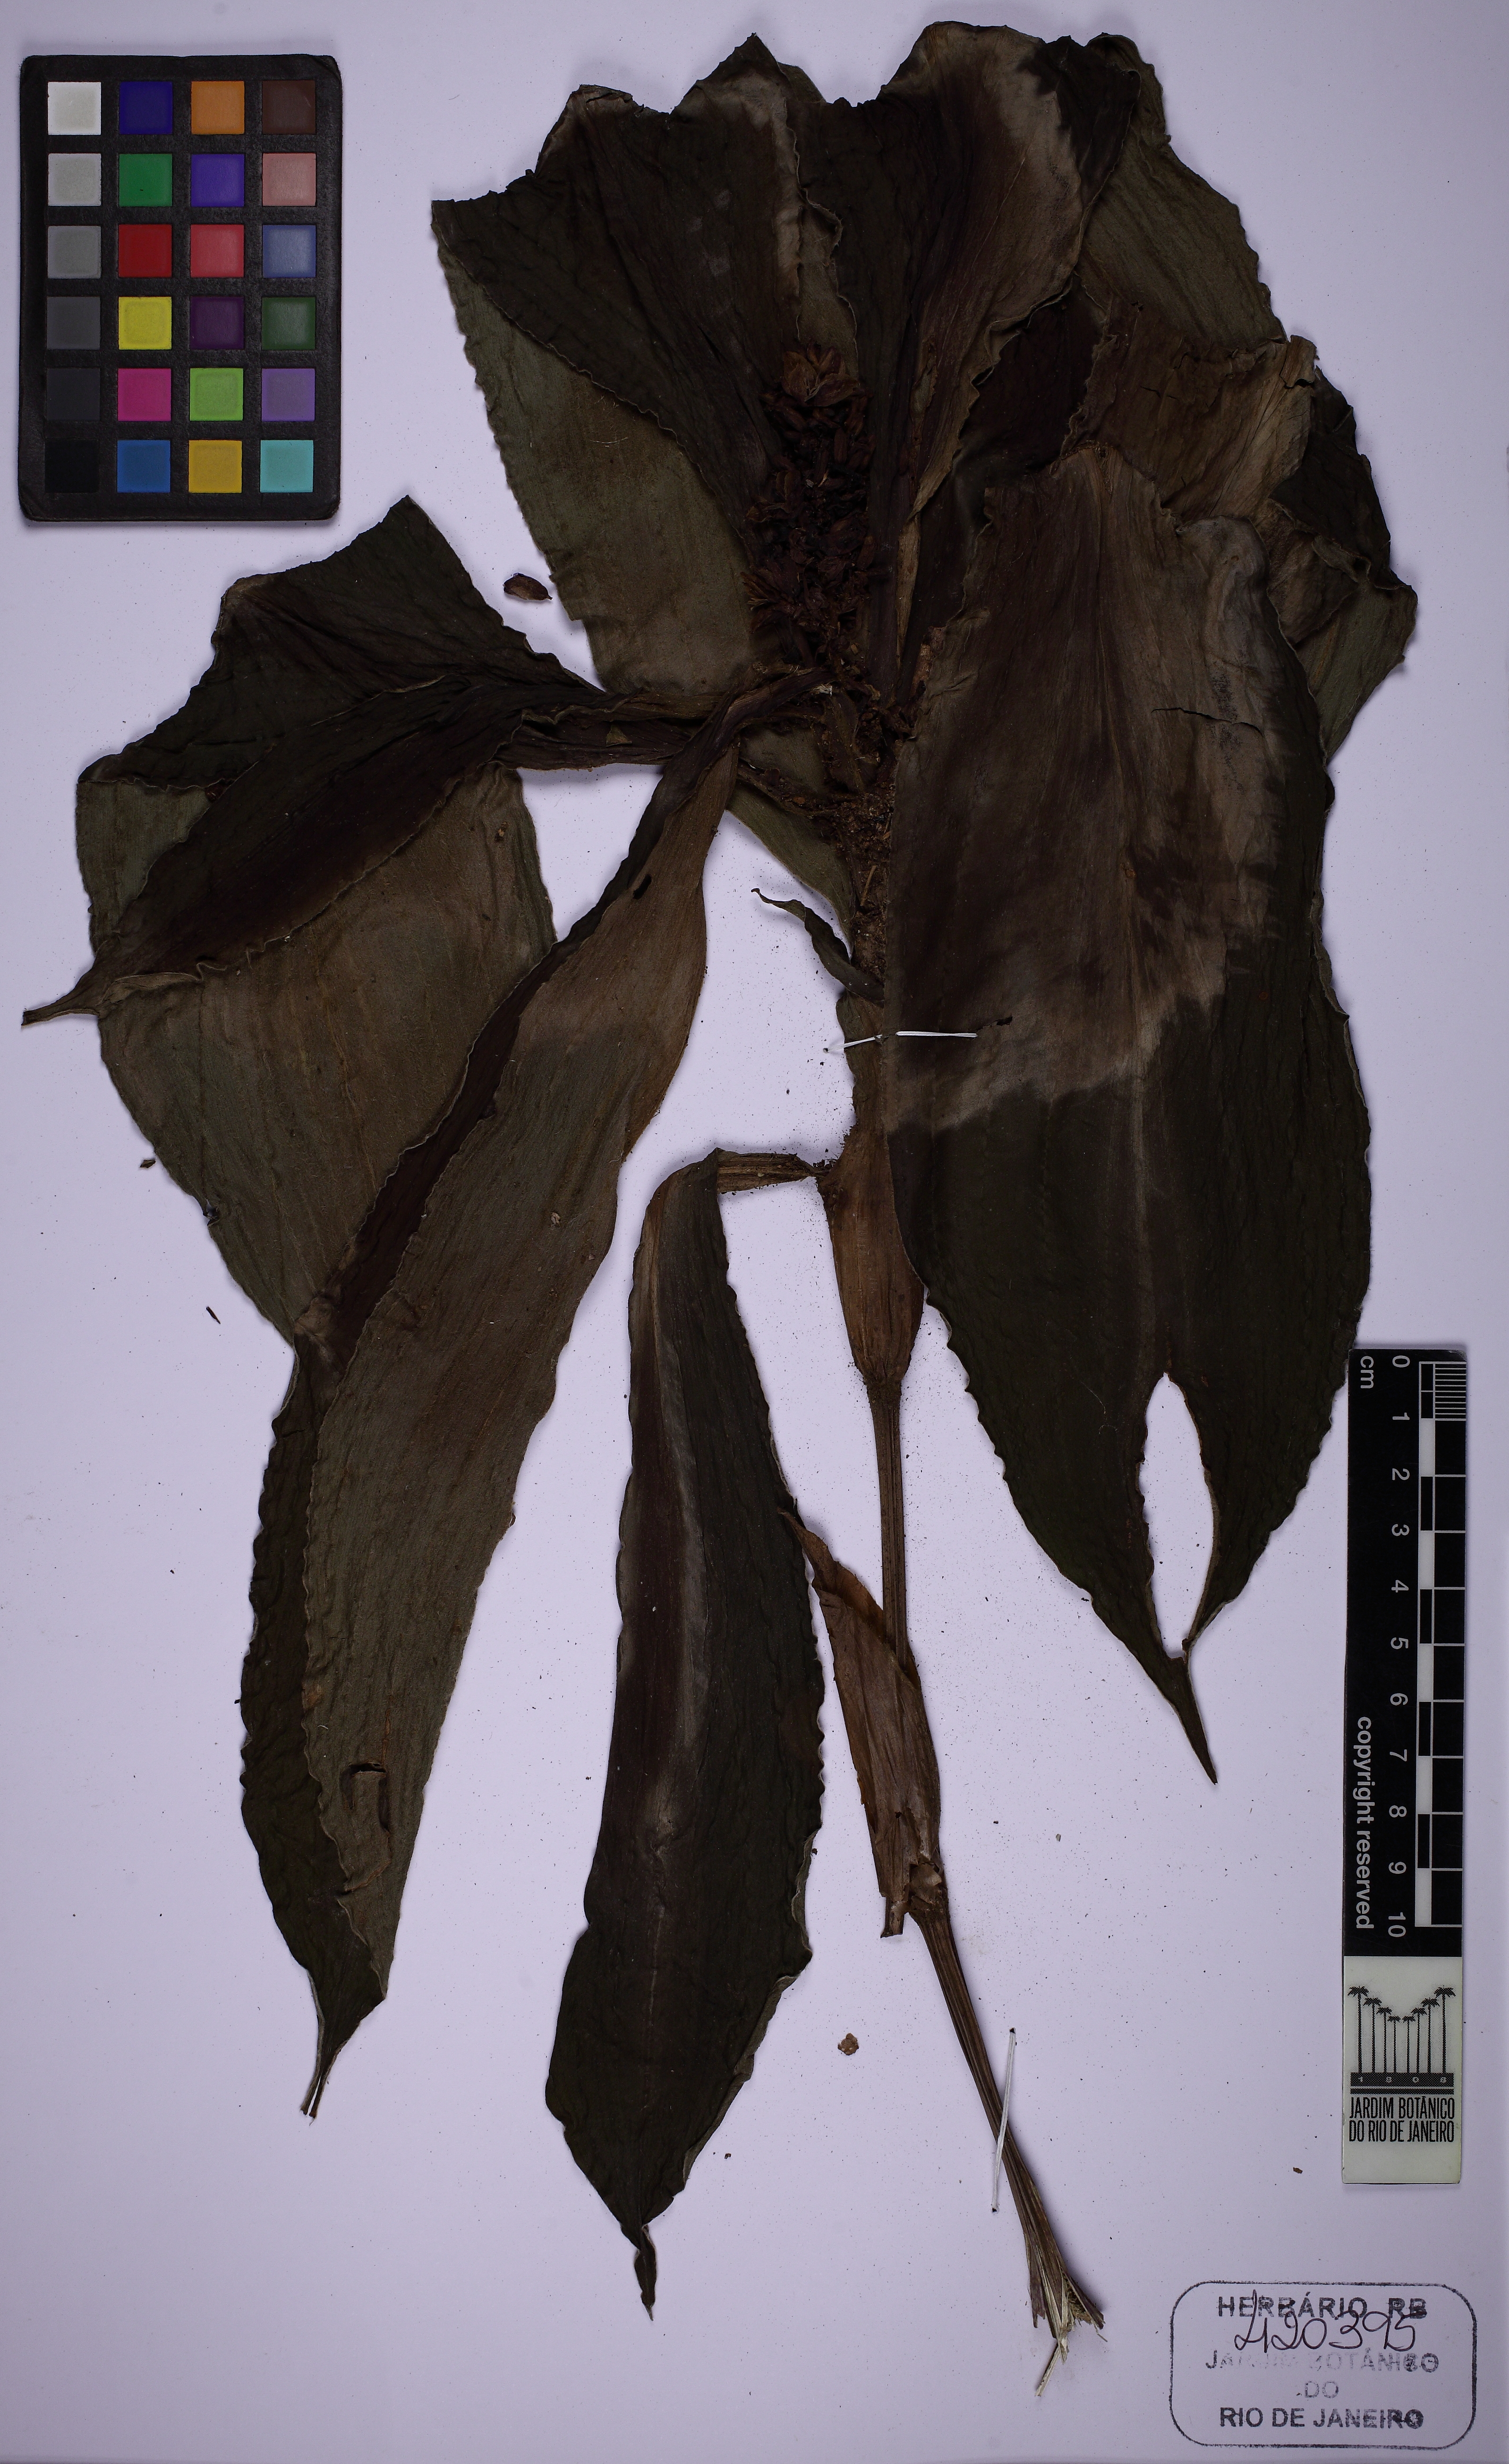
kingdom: Plantae
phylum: Tracheophyta
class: Liliopsida
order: Commelinales
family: Commelinaceae
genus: Dichorisandra
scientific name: Dichorisandra gaudichaudiana
